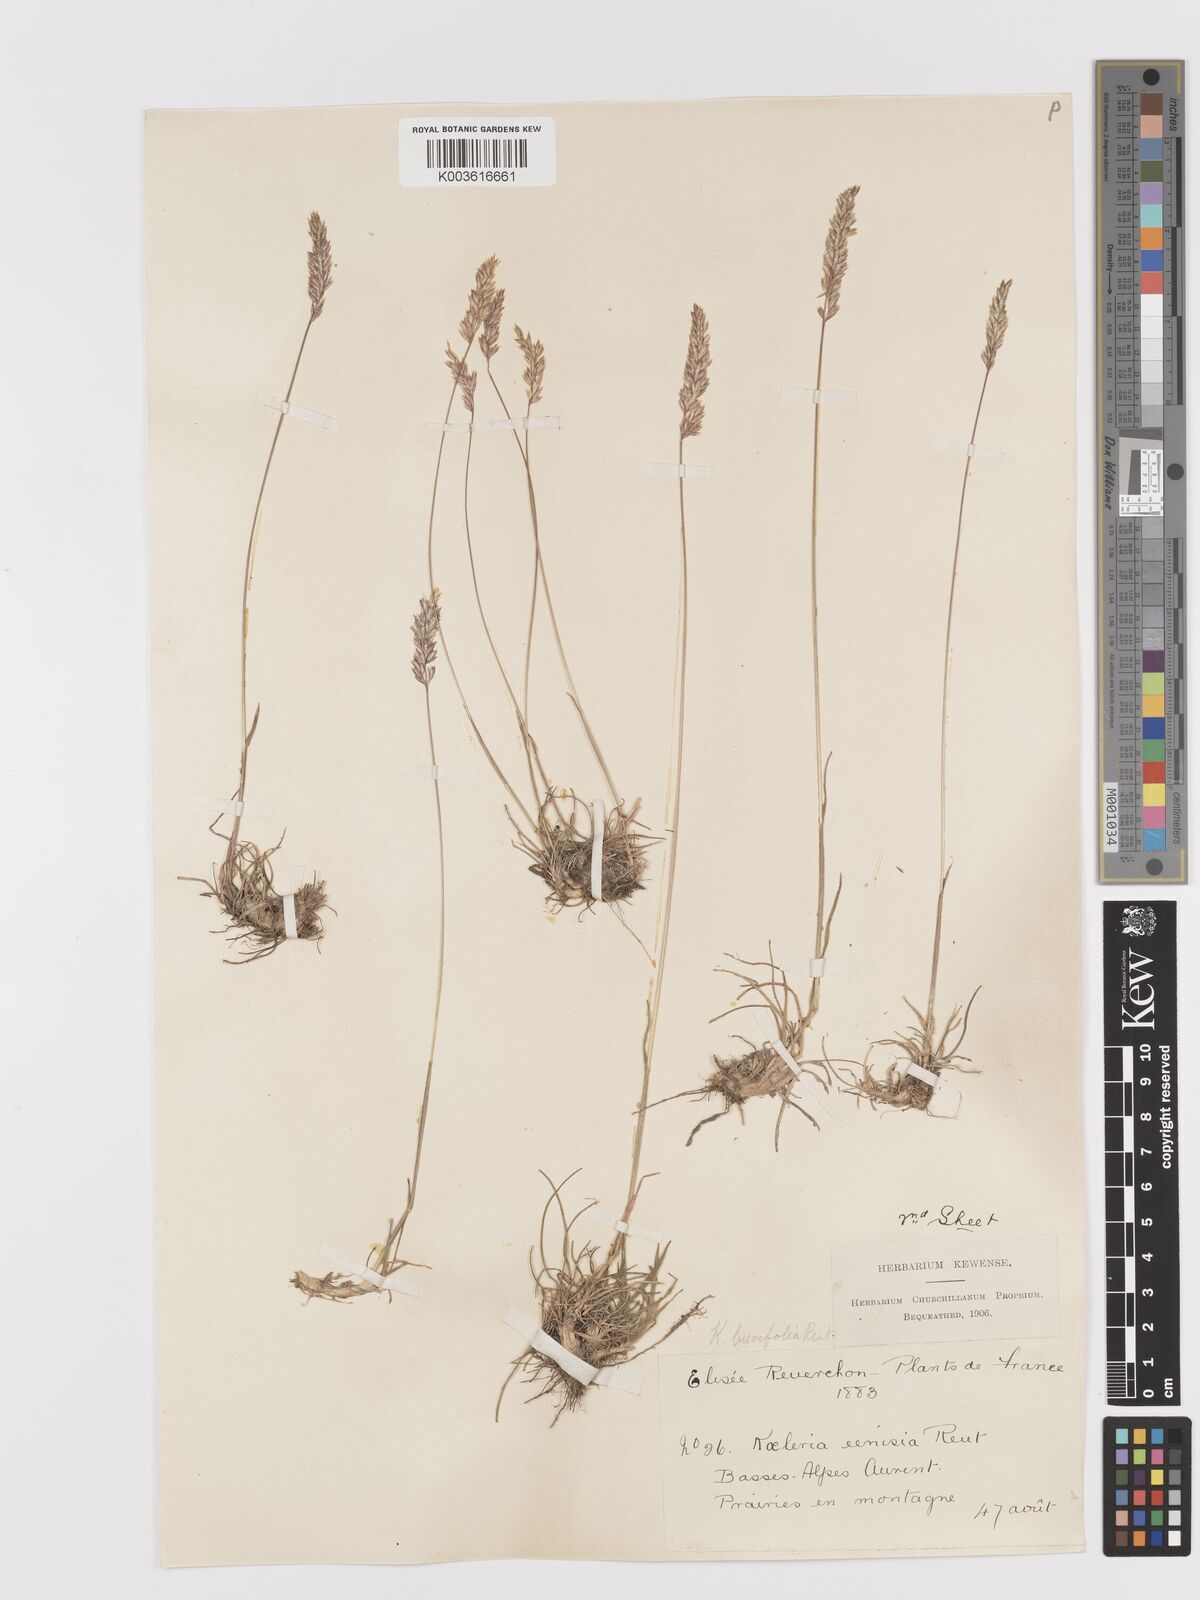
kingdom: Plantae
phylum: Tracheophyta
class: Liliopsida
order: Poales
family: Poaceae
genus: Koeleria
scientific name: Koeleria cenisia
